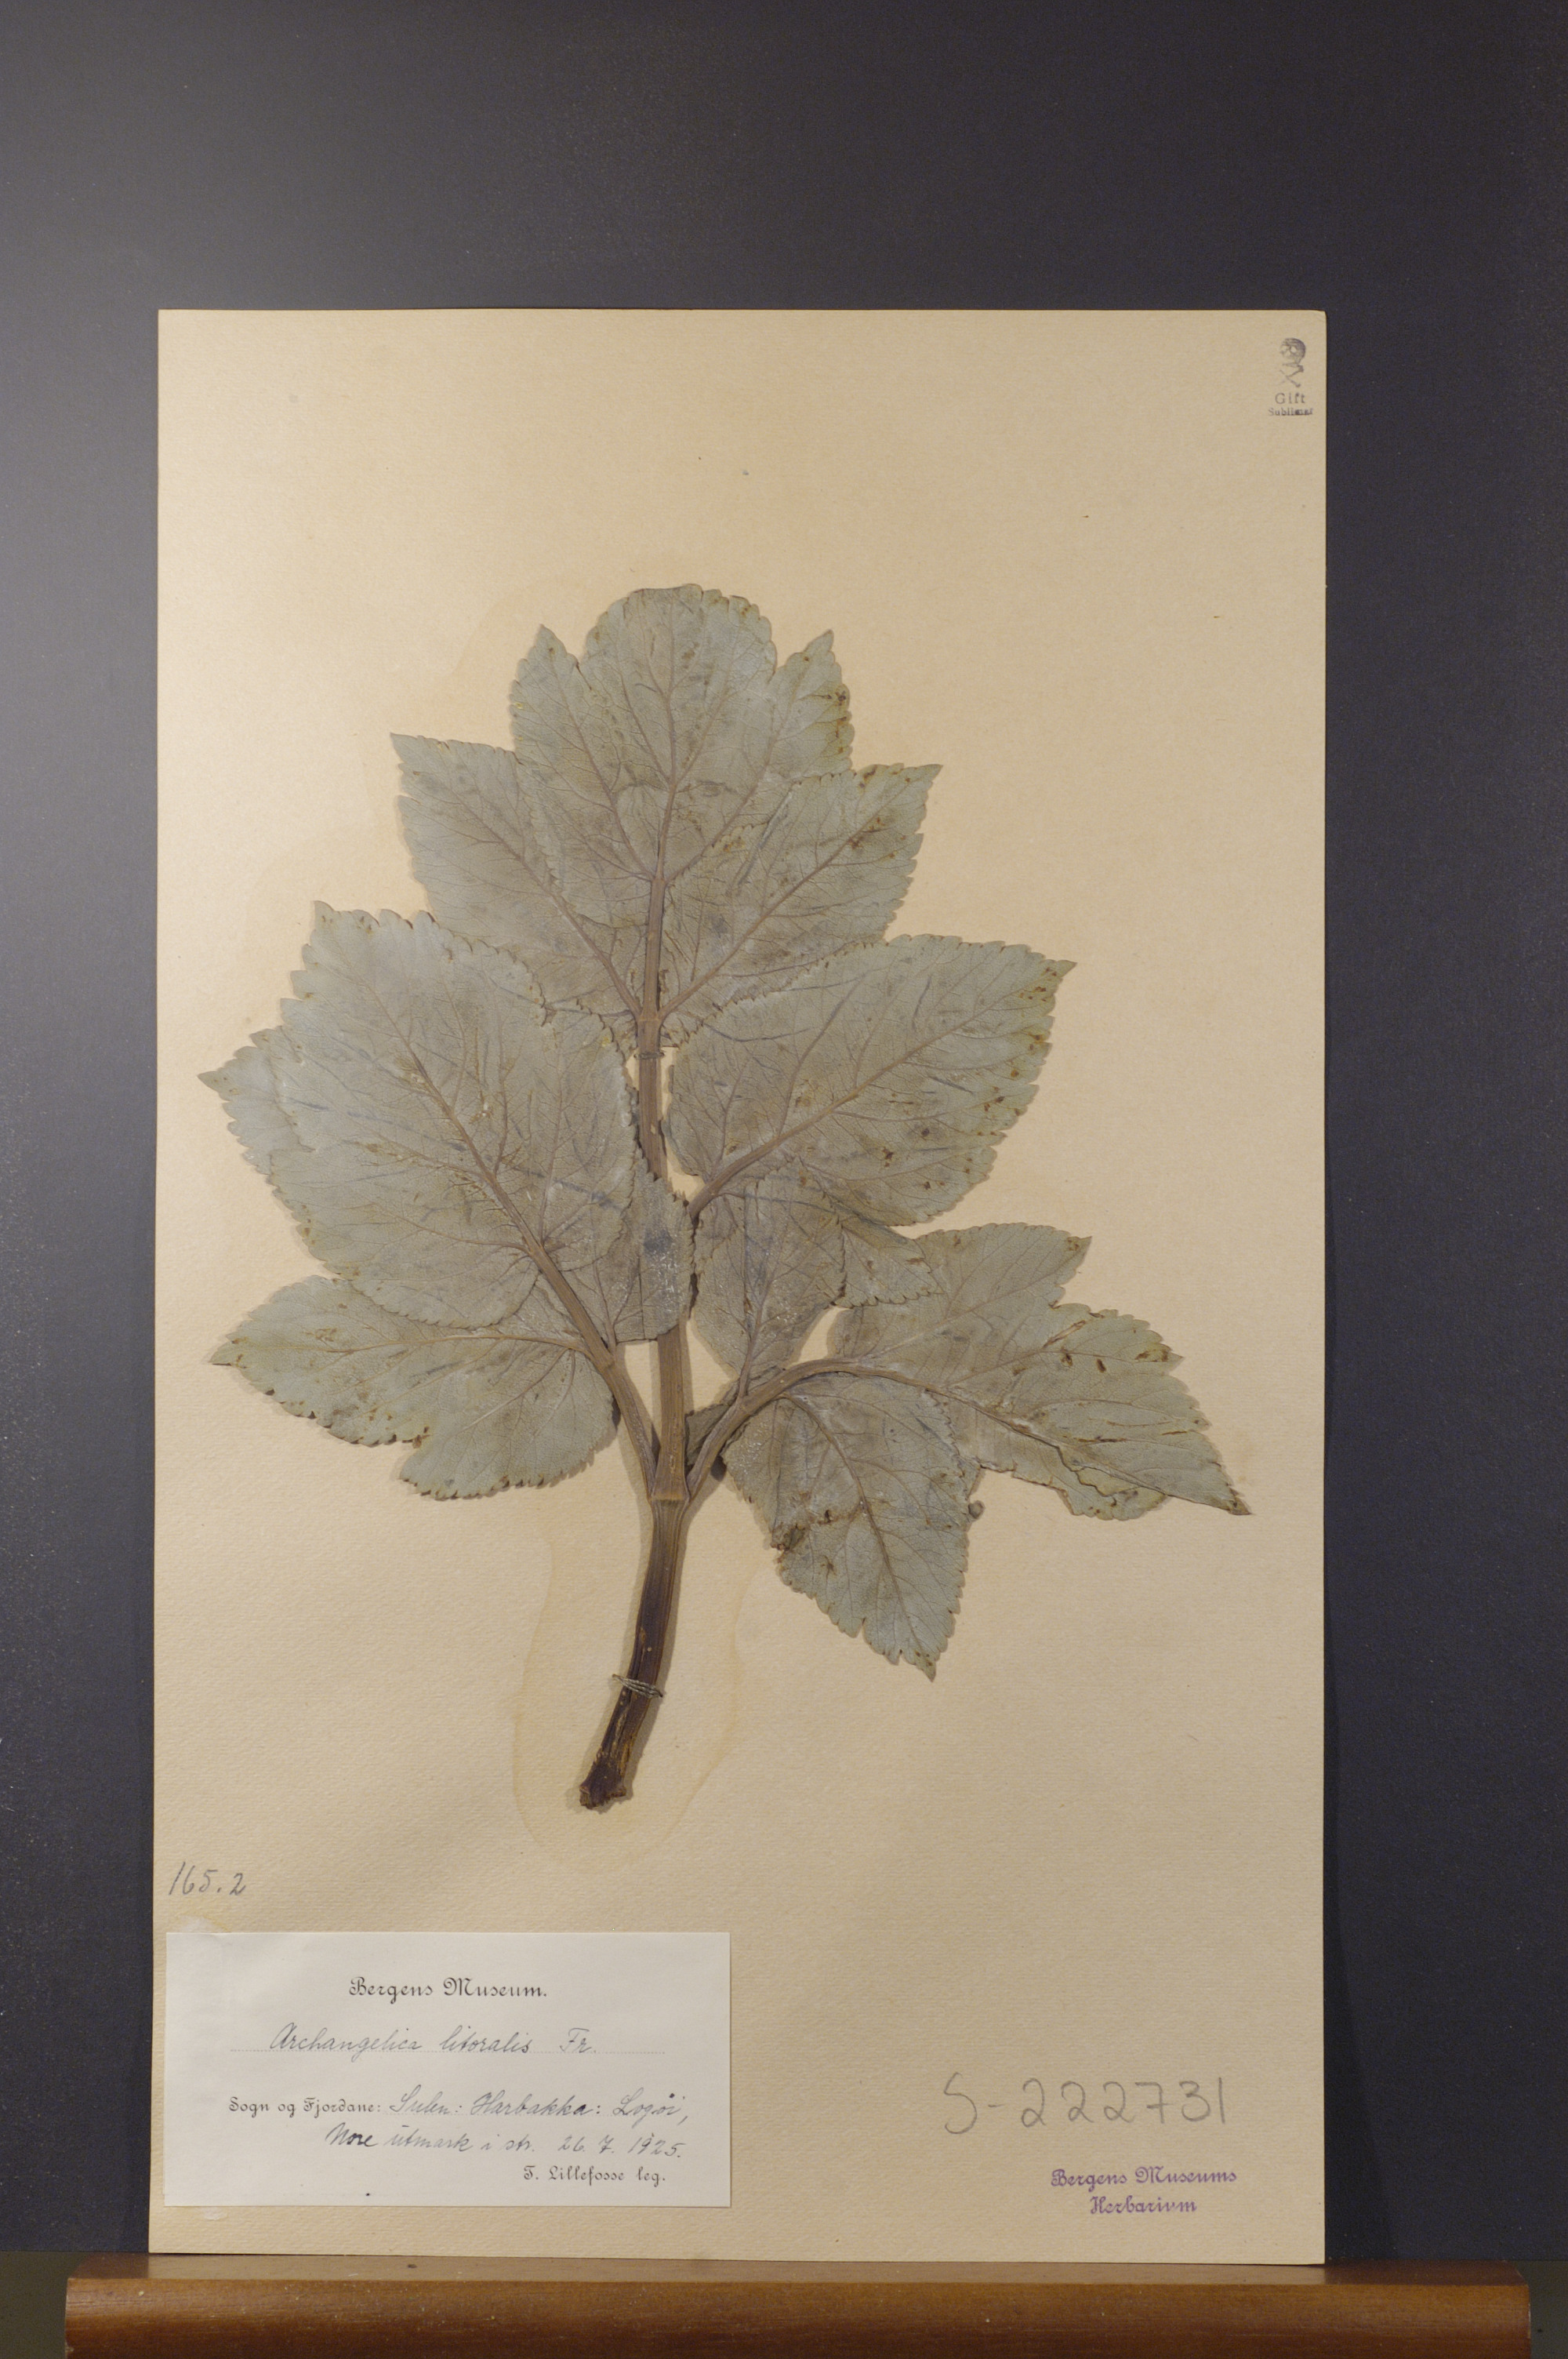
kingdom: Plantae
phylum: Tracheophyta
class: Magnoliopsida
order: Apiales
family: Apiaceae
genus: Angelica
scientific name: Angelica archangelica
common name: Garden angelica
